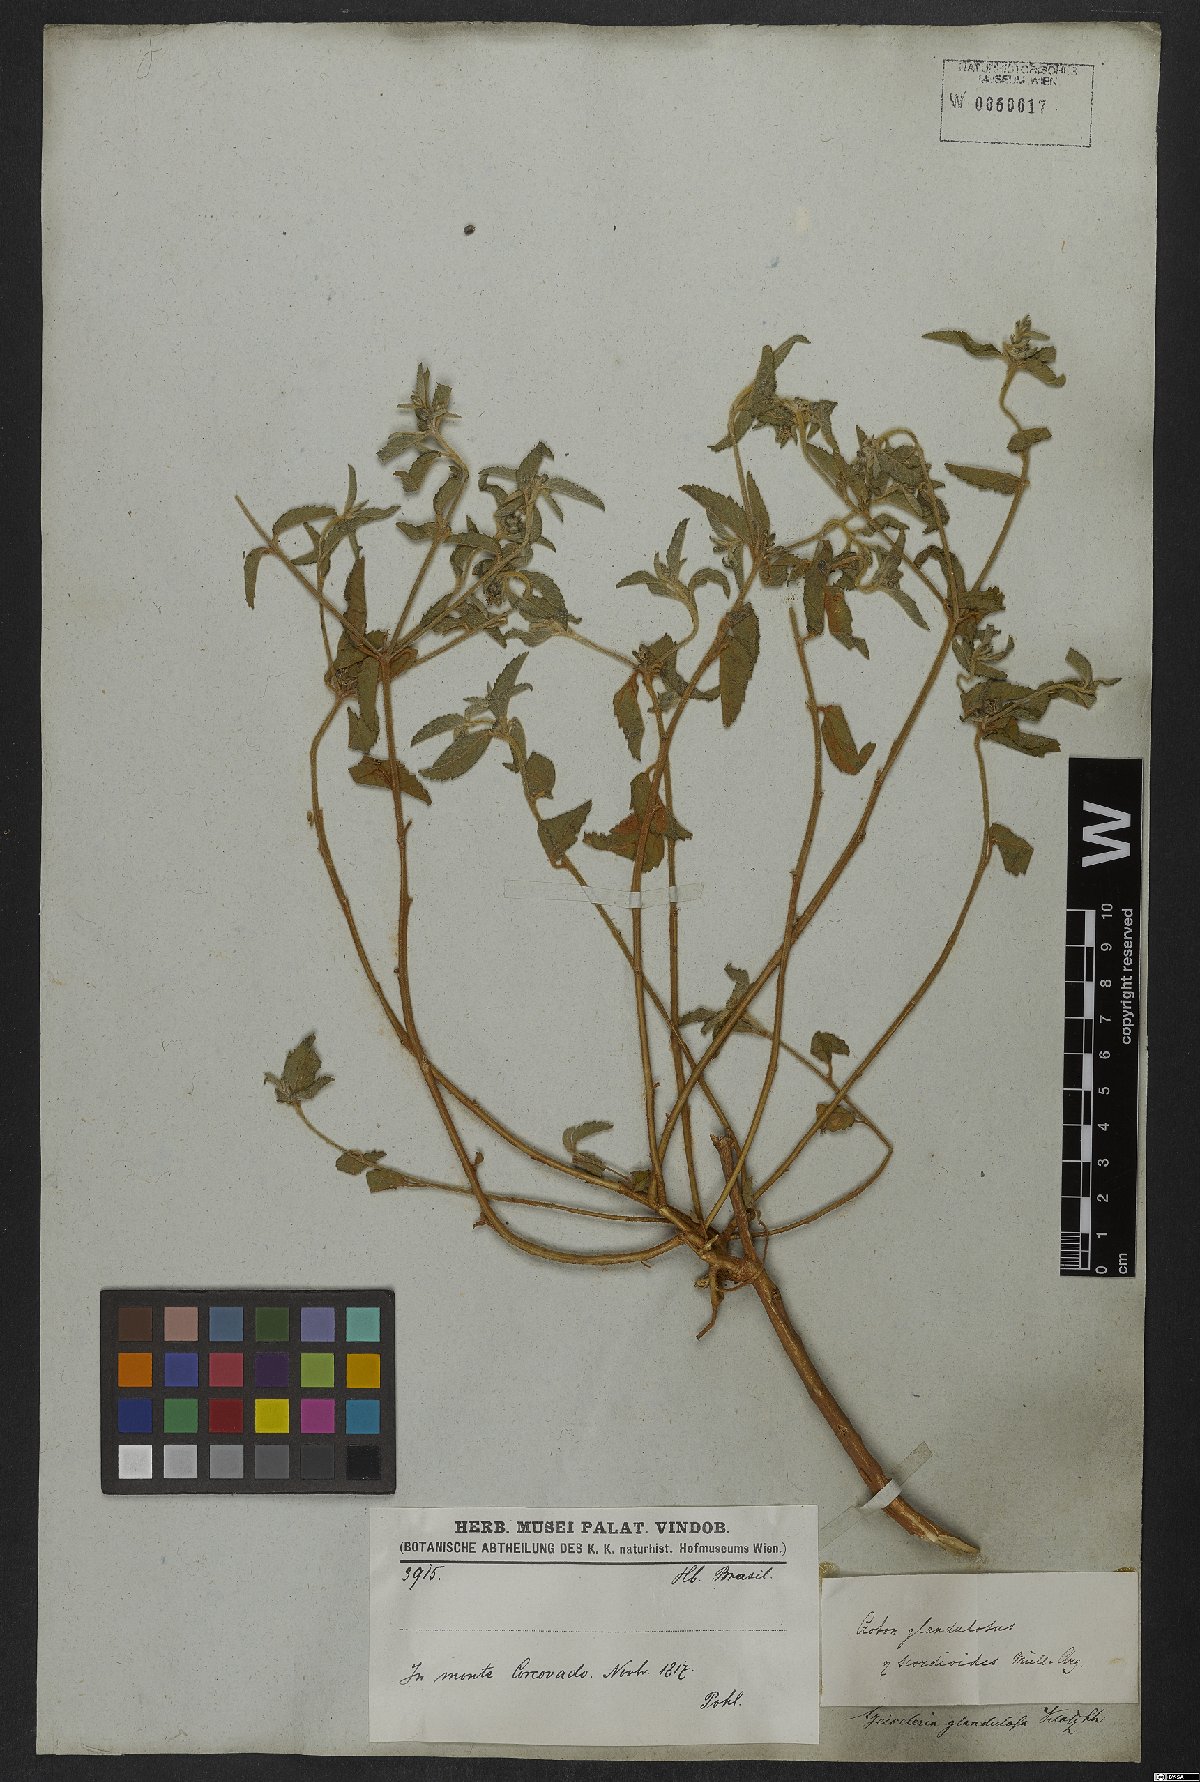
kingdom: Plantae
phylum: Tracheophyta
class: Magnoliopsida
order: Malpighiales
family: Euphorbiaceae
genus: Croton
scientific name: Croton glandulosus
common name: Tropic croton
